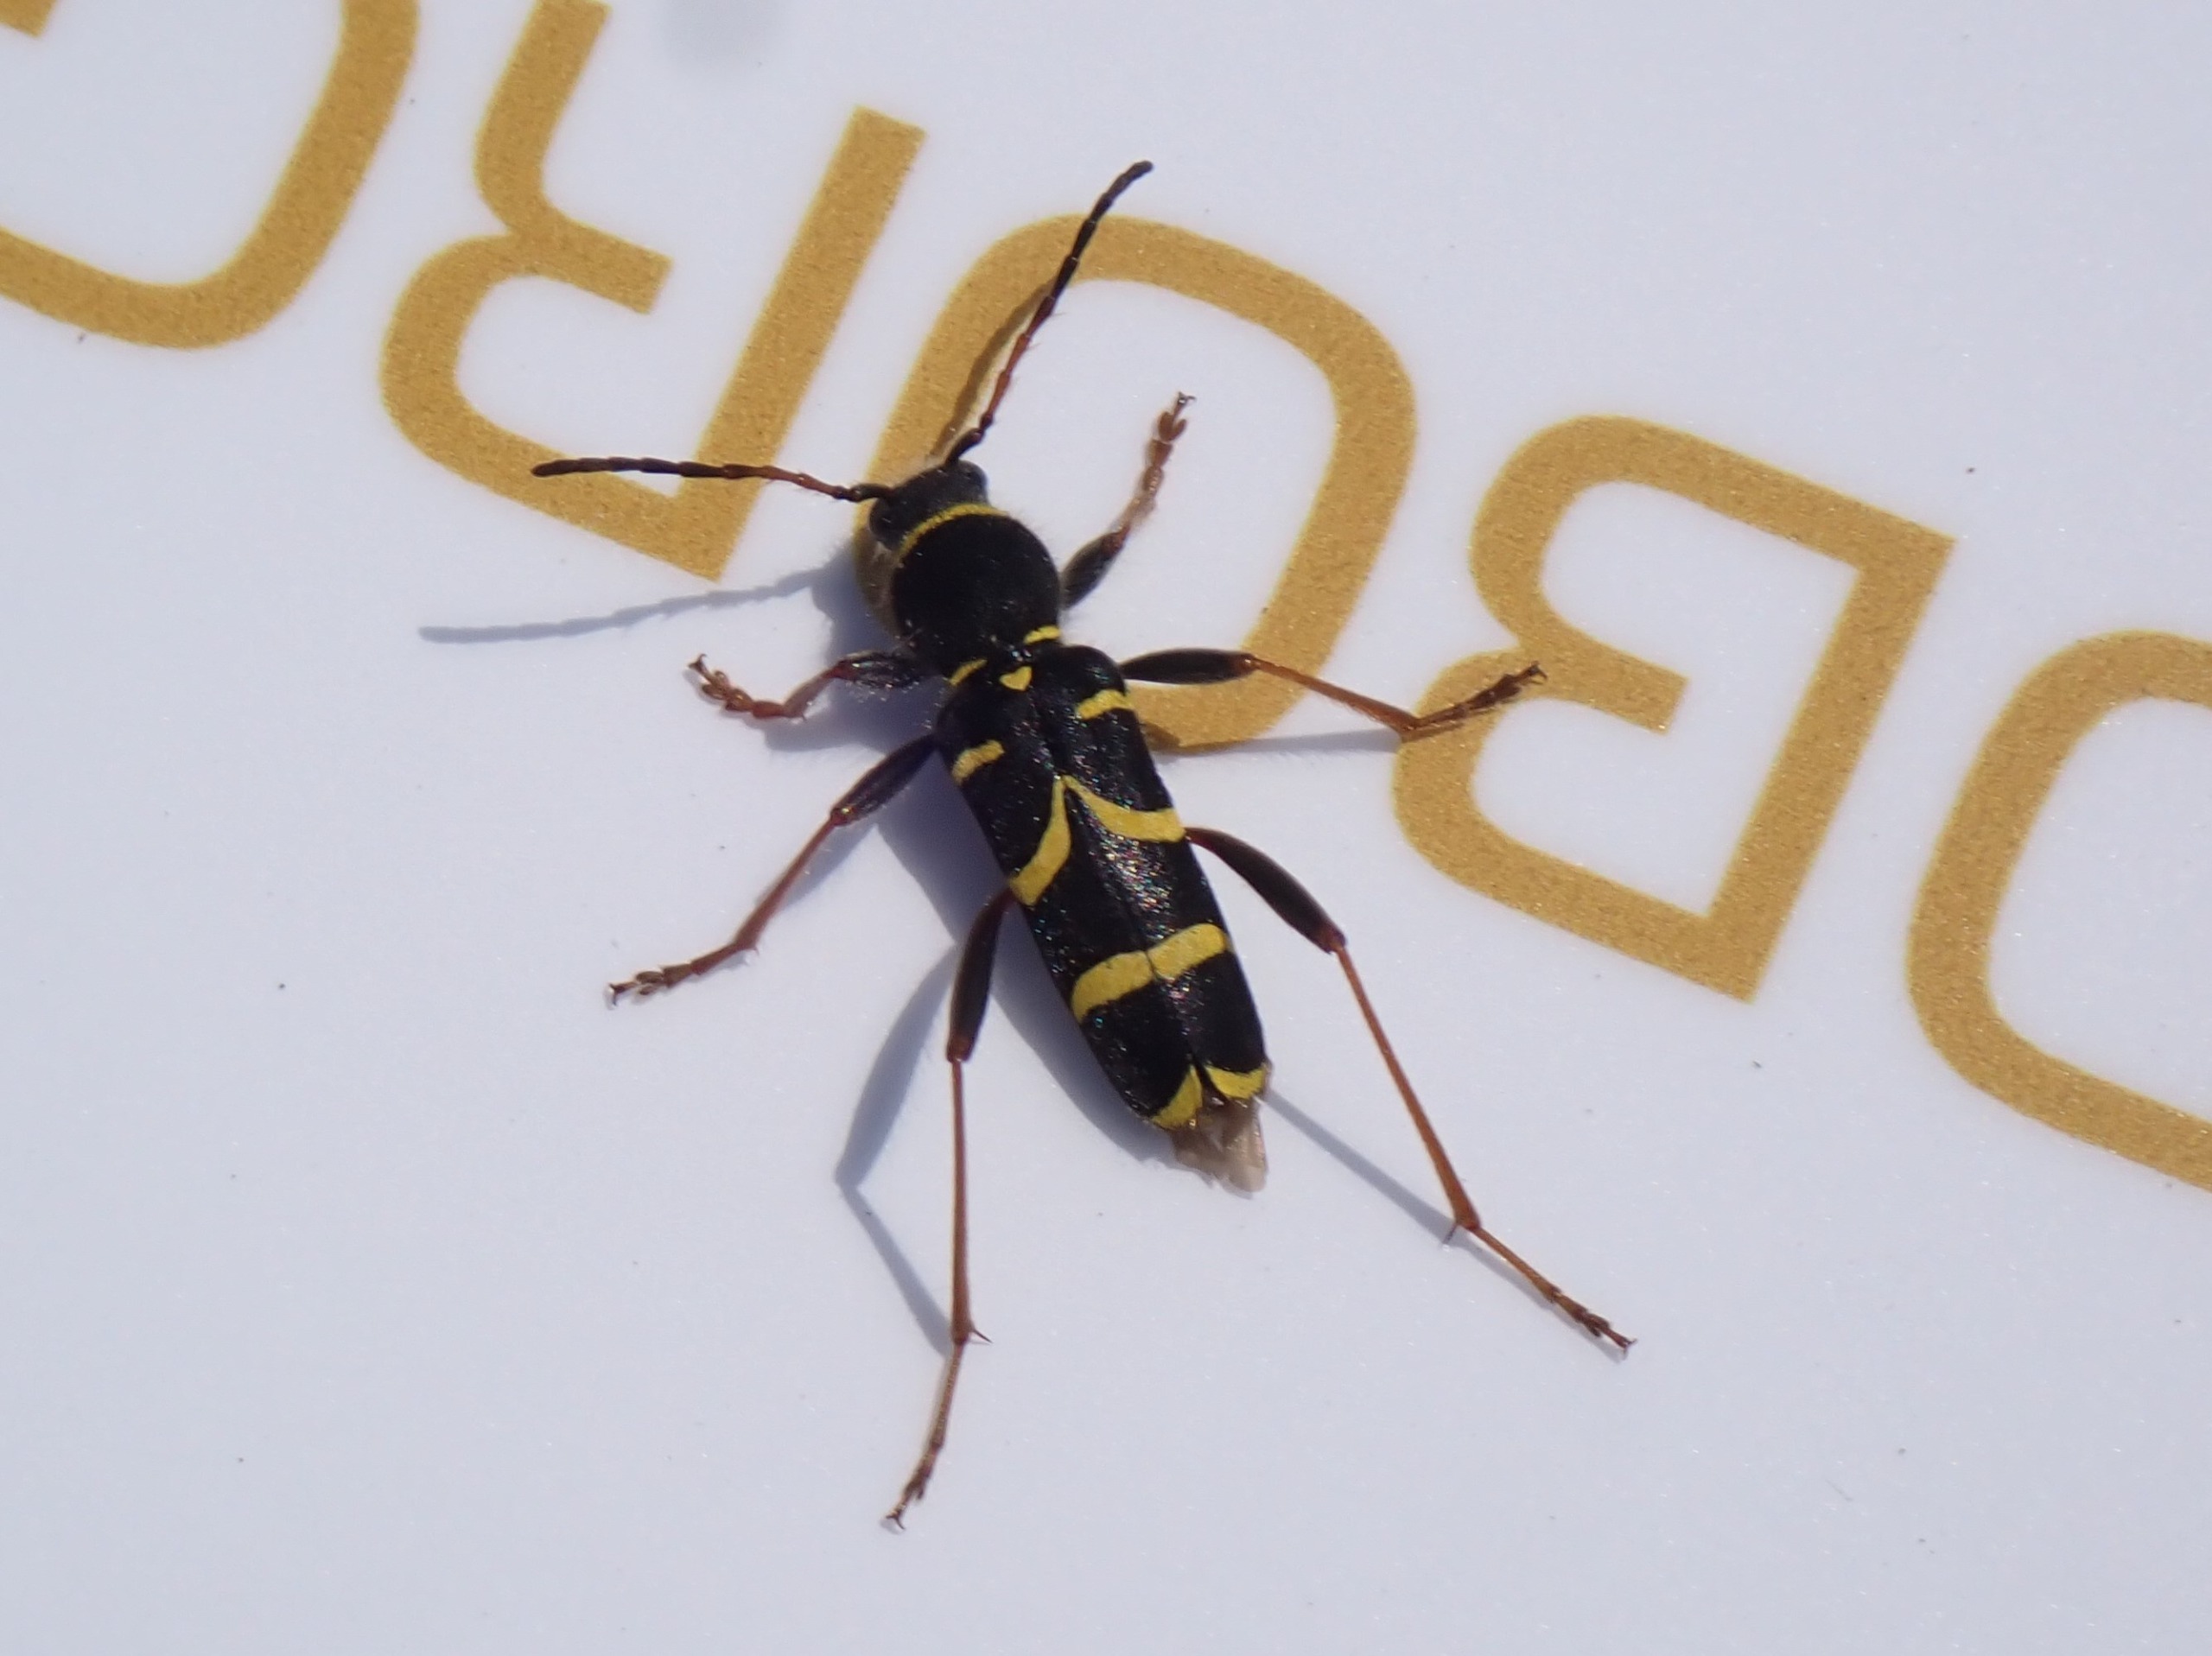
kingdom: Animalia
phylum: Arthropoda
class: Insecta
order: Coleoptera
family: Cerambycidae
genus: Clytus
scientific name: Clytus arietis
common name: Lille hvepsebuk
